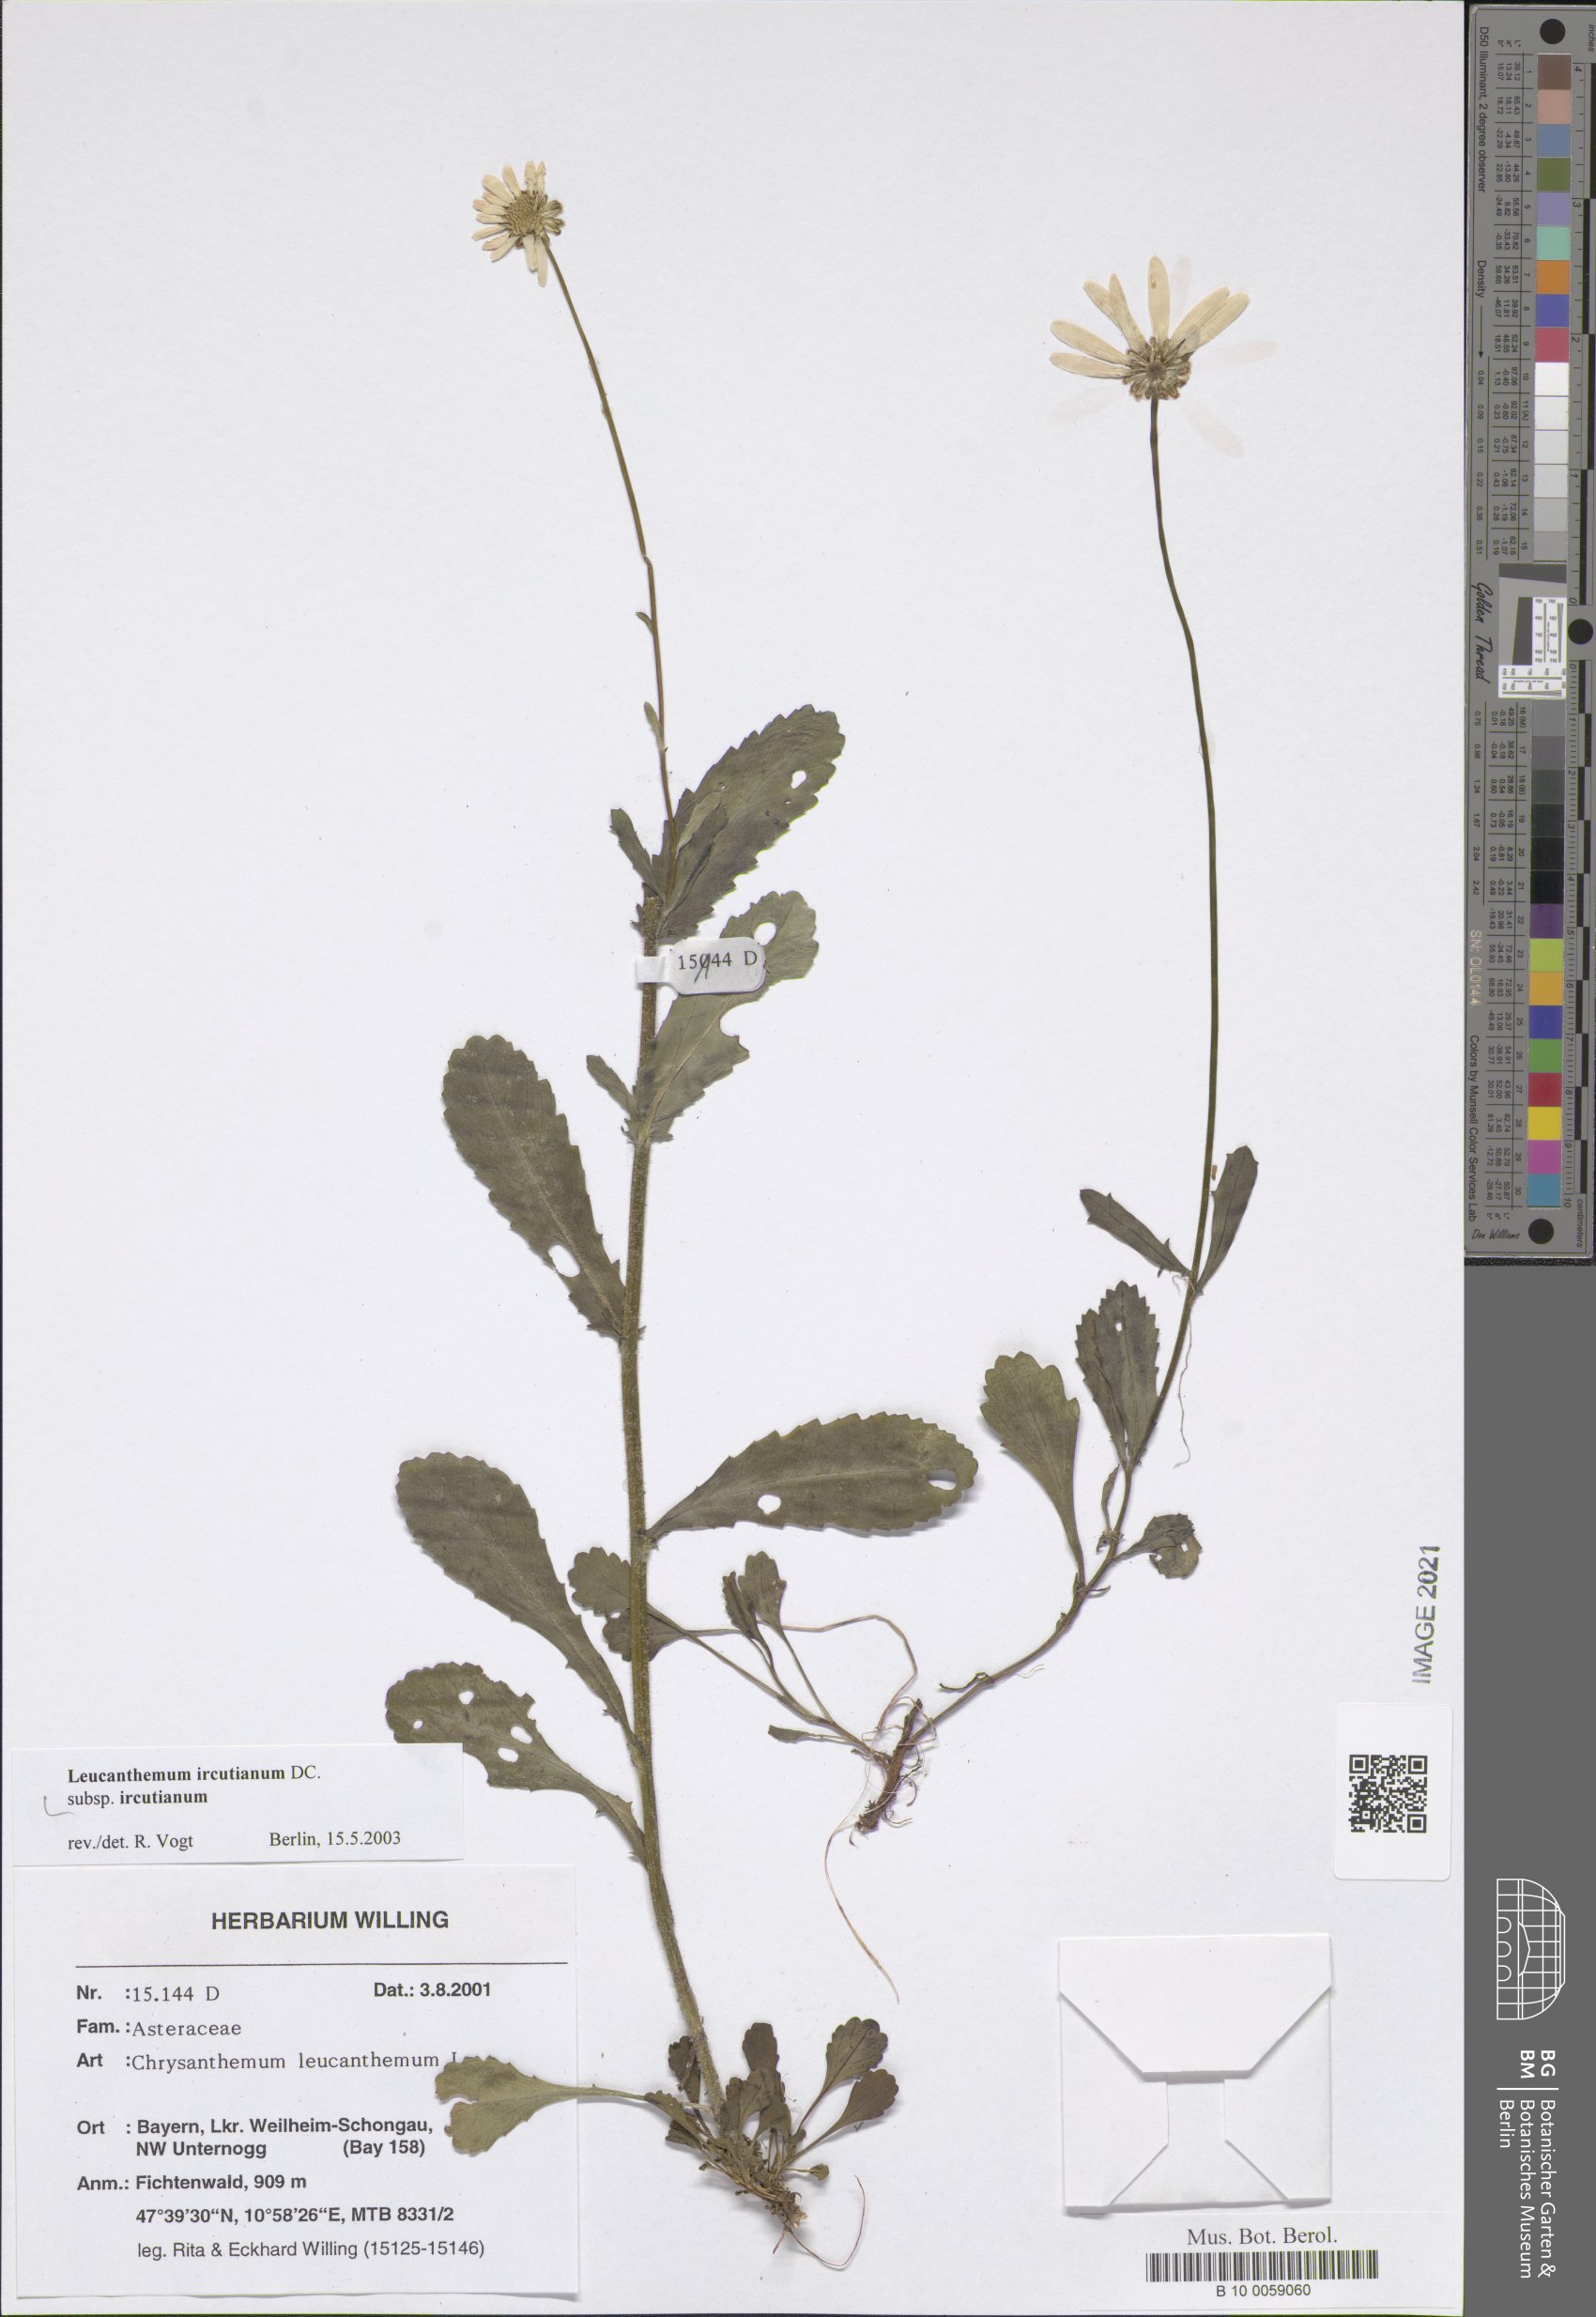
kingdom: Plantae
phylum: Tracheophyta
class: Magnoliopsida
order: Asterales
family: Asteraceae
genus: Leucanthemum
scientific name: Leucanthemum ircutianum
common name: Daisy
